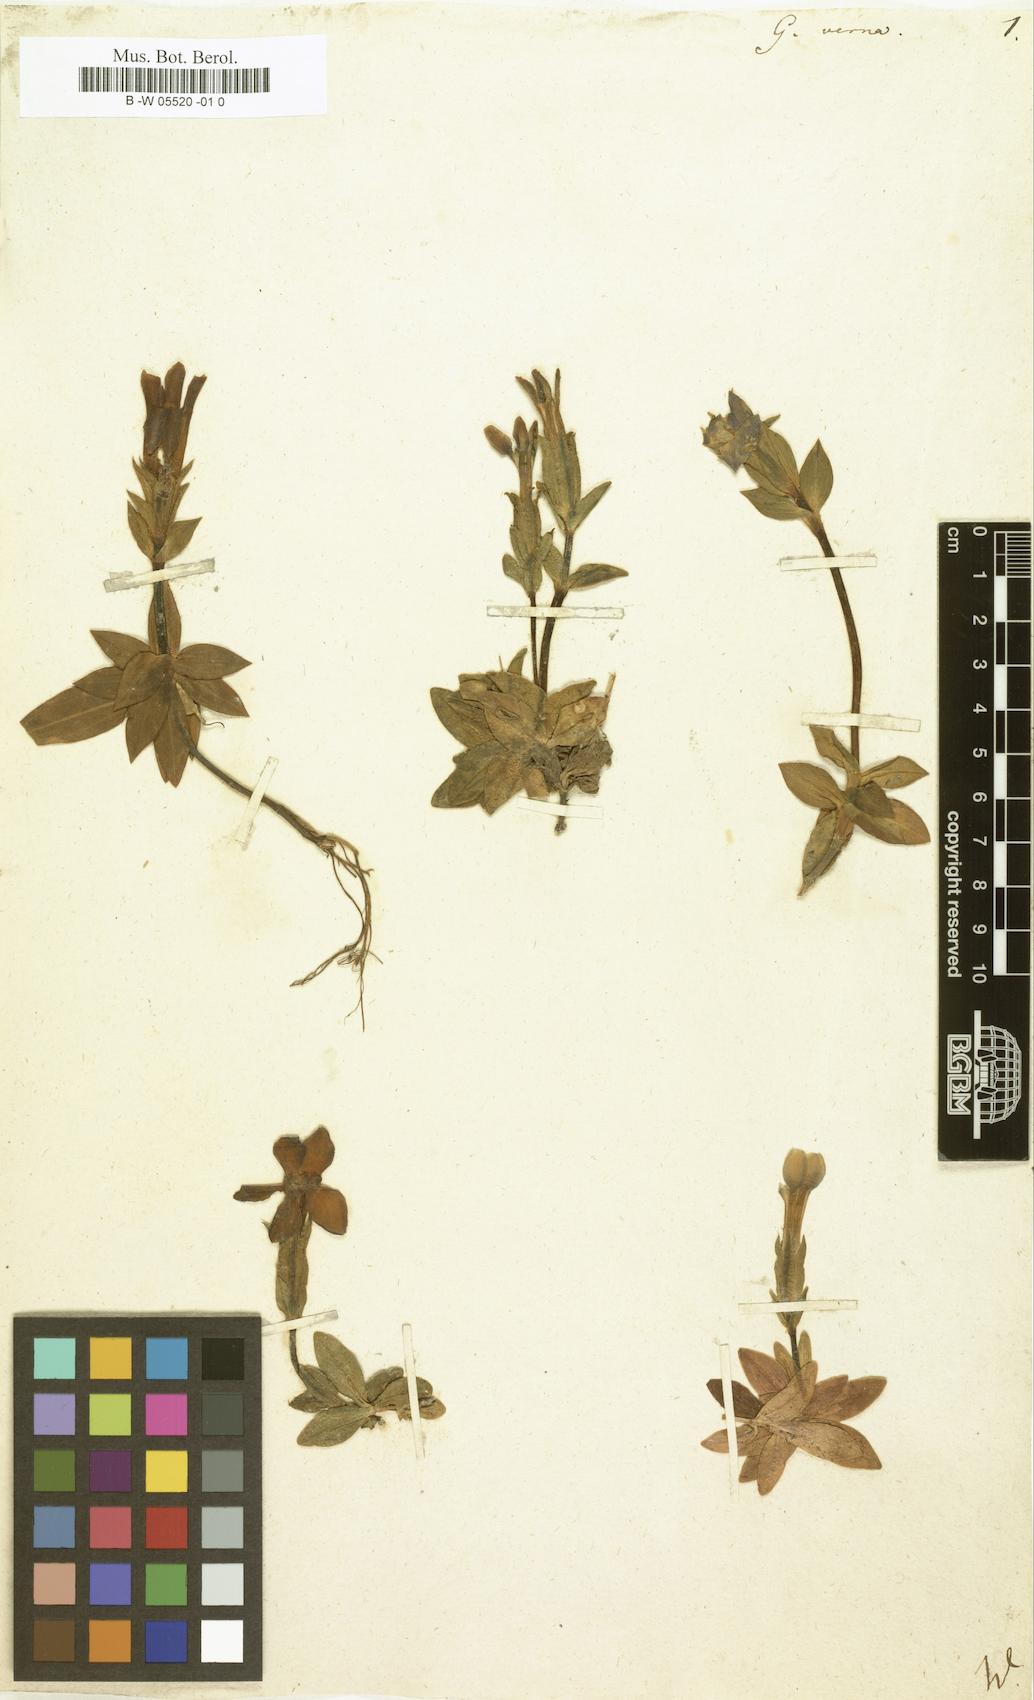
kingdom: Plantae
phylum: Tracheophyta
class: Magnoliopsida
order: Gentianales
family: Gentianaceae
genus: Gentiana
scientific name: Gentiana verna
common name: Spring gentian
